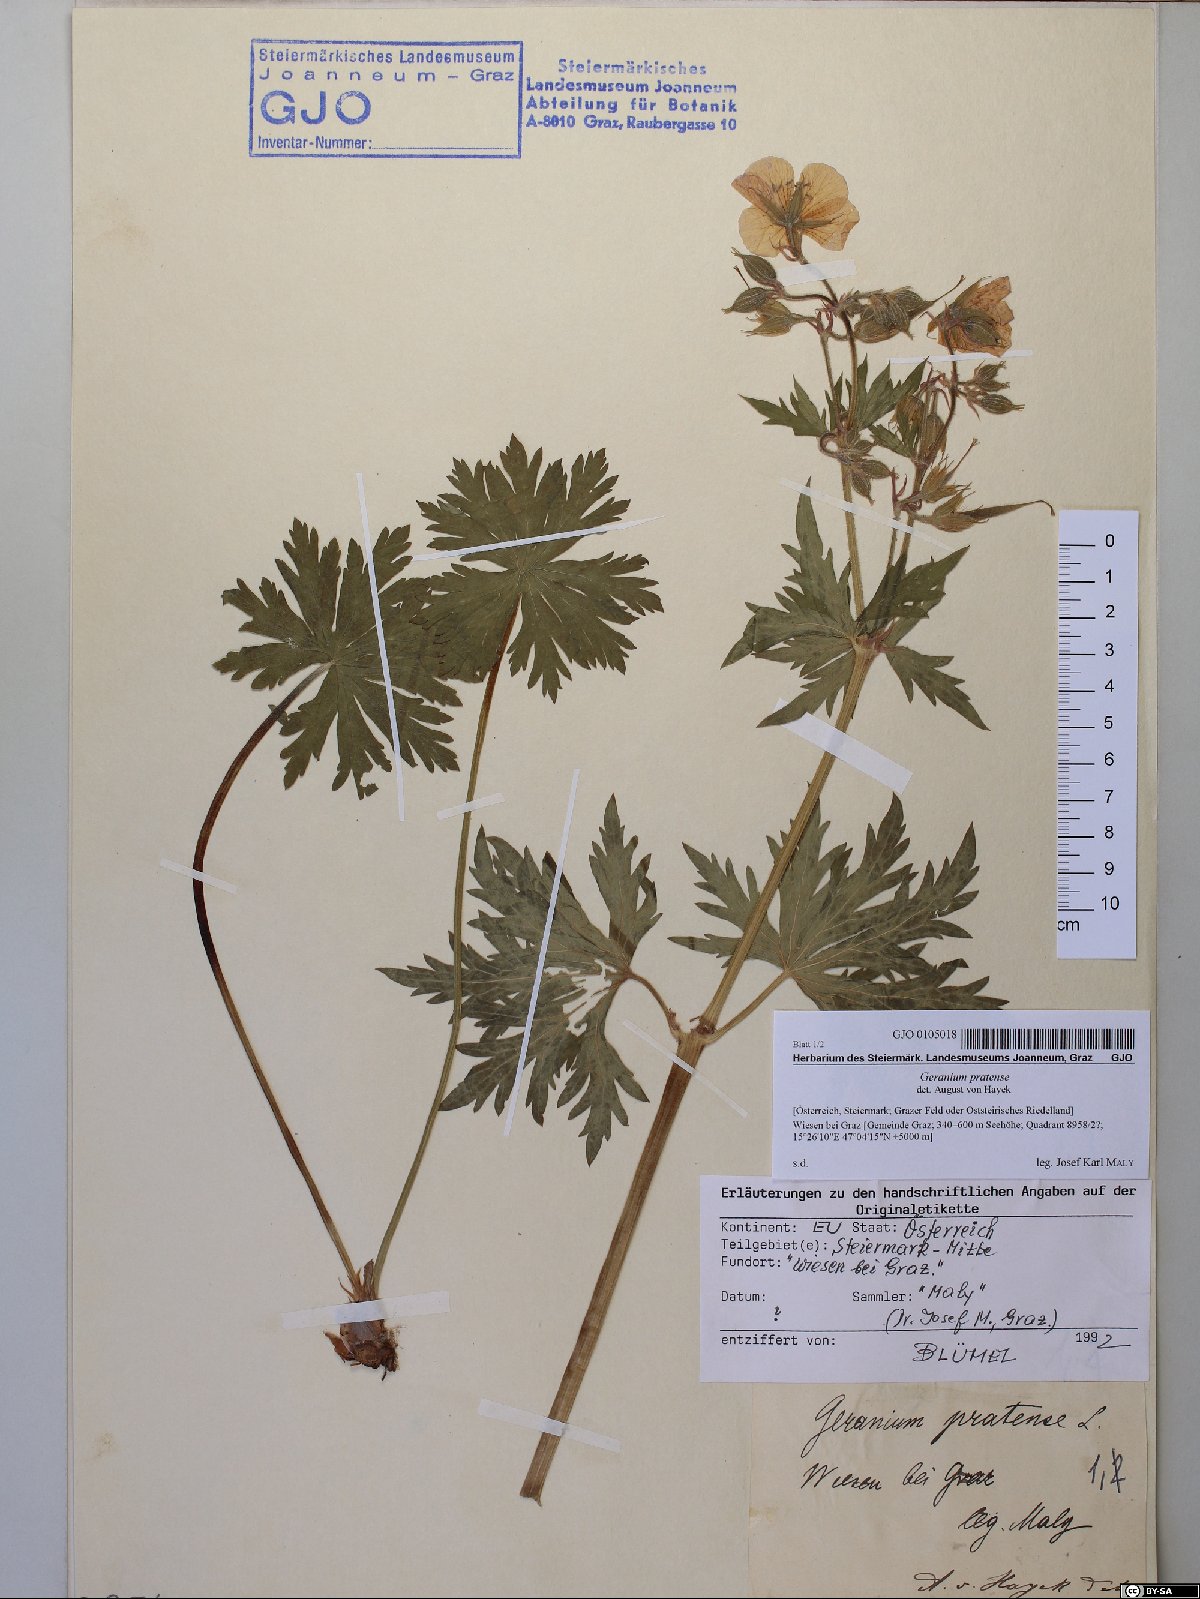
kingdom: Plantae
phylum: Tracheophyta
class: Magnoliopsida
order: Geraniales
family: Geraniaceae
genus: Geranium
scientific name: Geranium pratense
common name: Meadow crane's-bill
